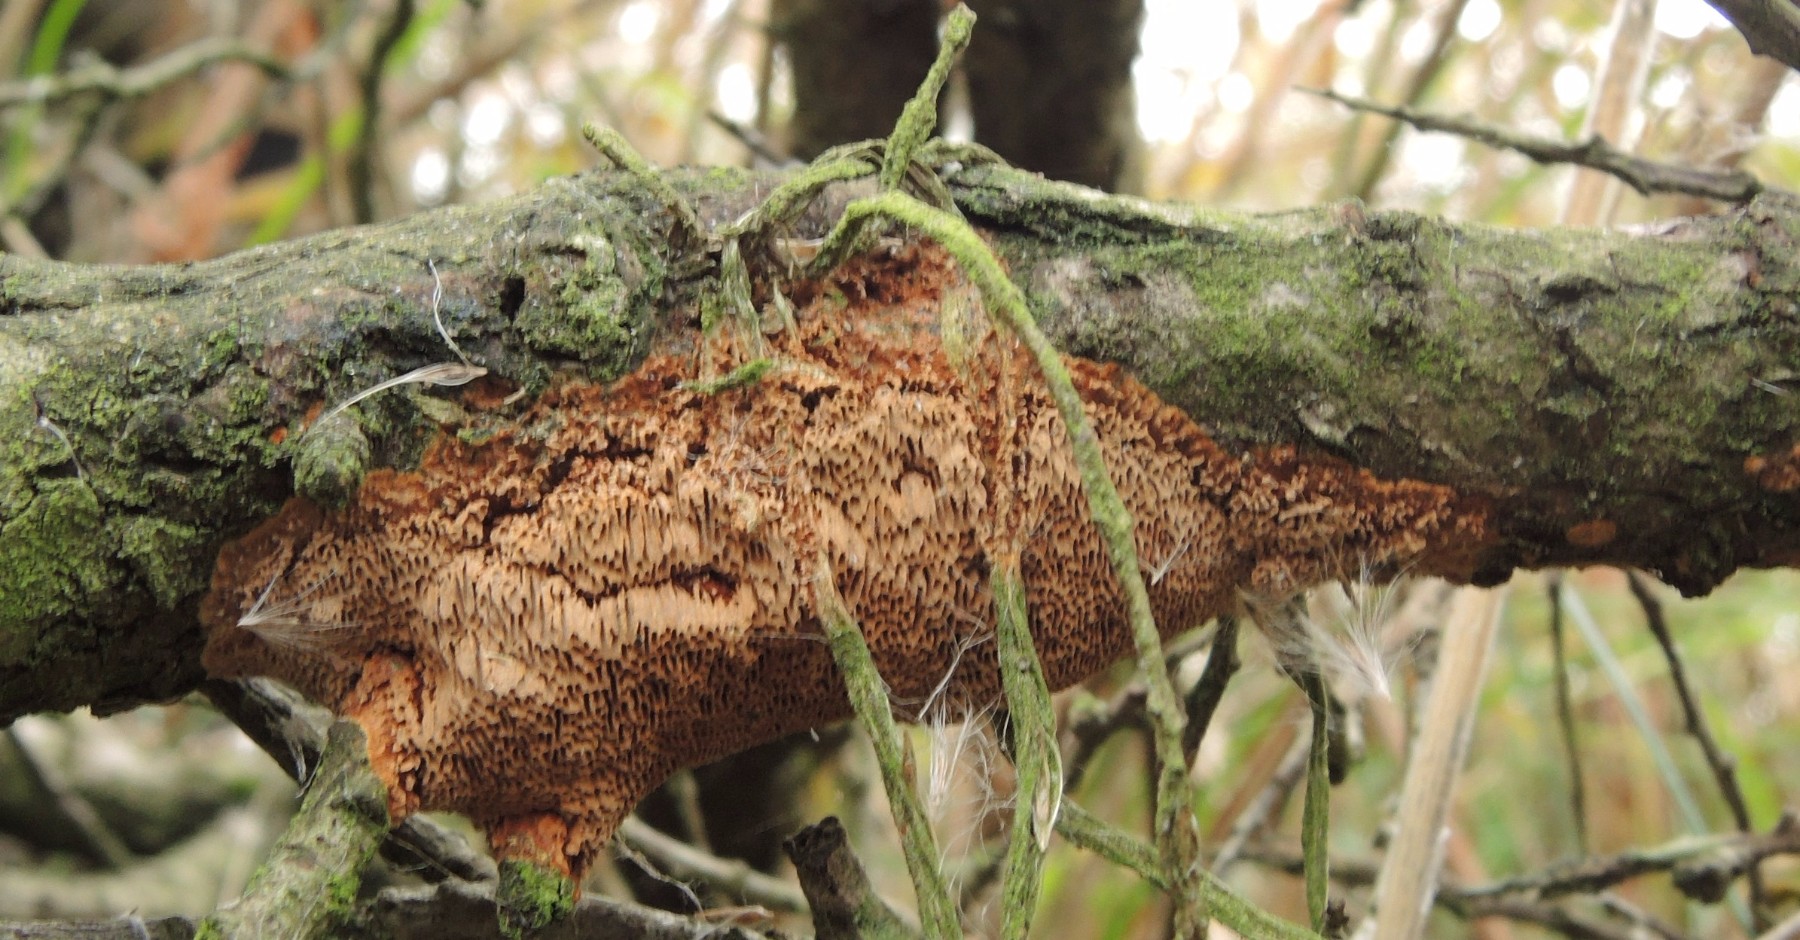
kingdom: Fungi
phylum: Basidiomycota
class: Agaricomycetes
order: Hymenochaetales
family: Hymenochaetaceae
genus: Fuscoporia
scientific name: Fuscoporia contigua
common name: grov ildporesvamp
